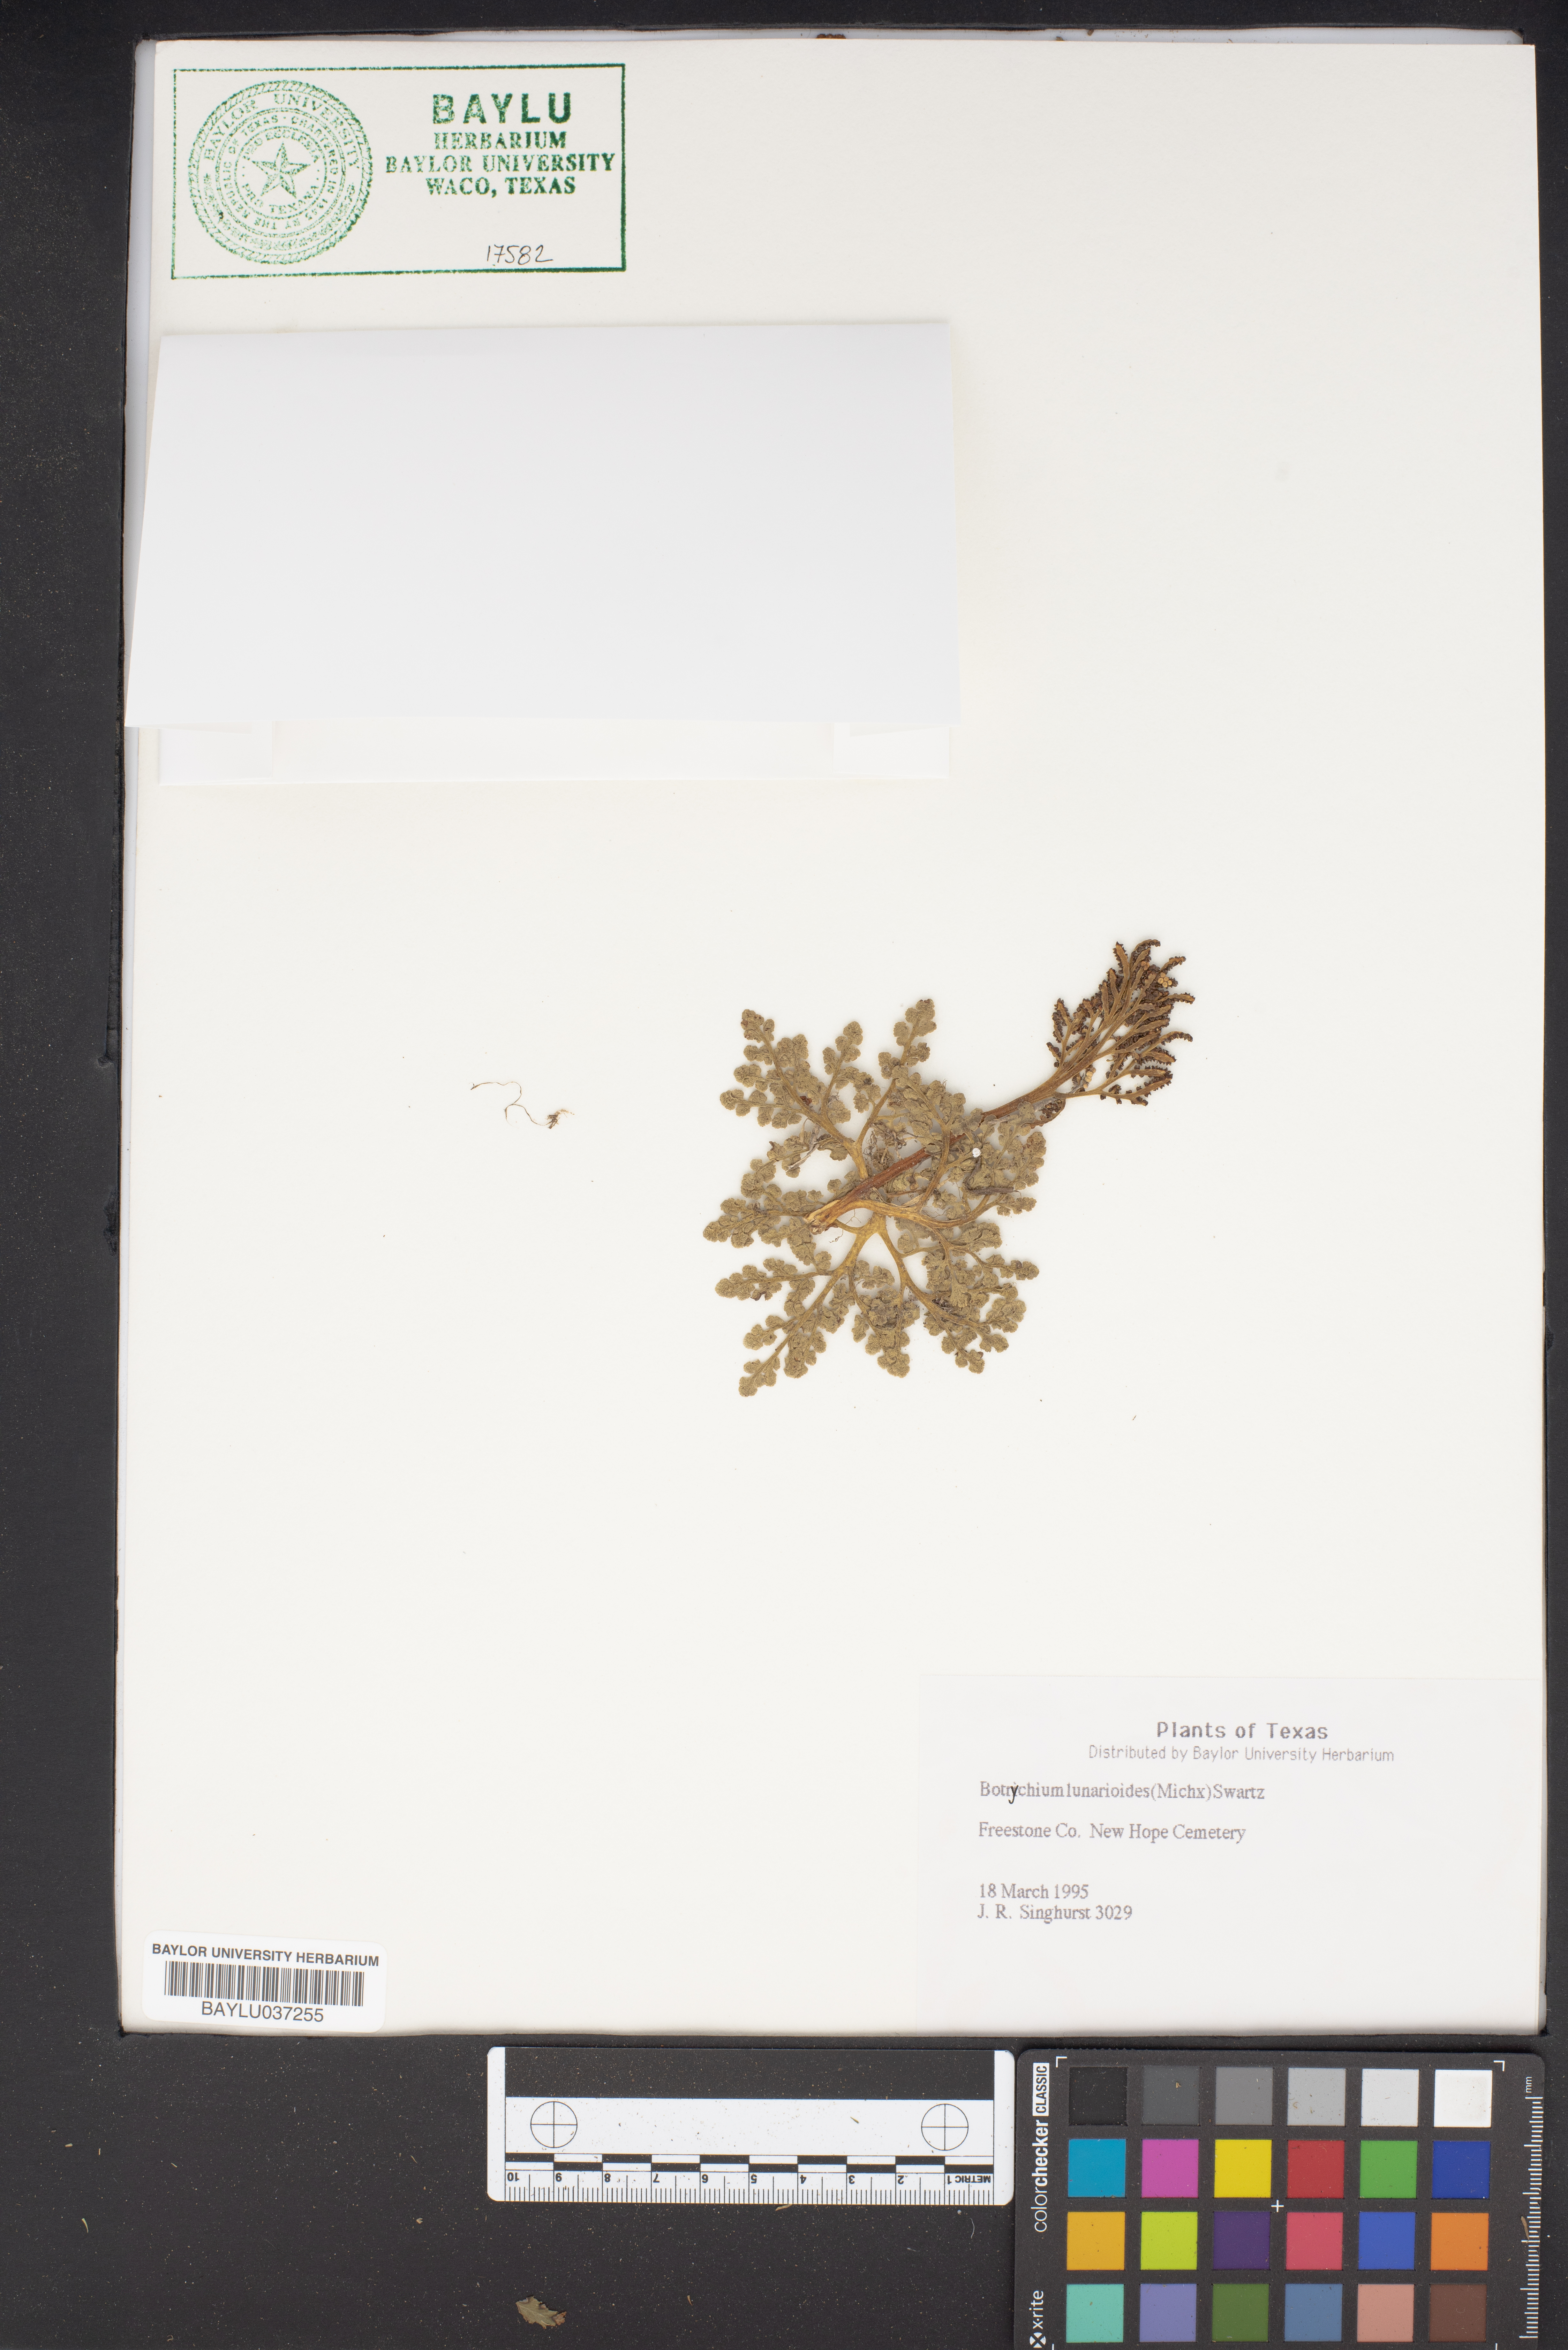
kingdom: Plantae
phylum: Tracheophyta
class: Polypodiopsida
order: Ophioglossales
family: Ophioglossaceae
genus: Sceptridium
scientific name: Sceptridium lunarioides
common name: Prostrate grapefern
